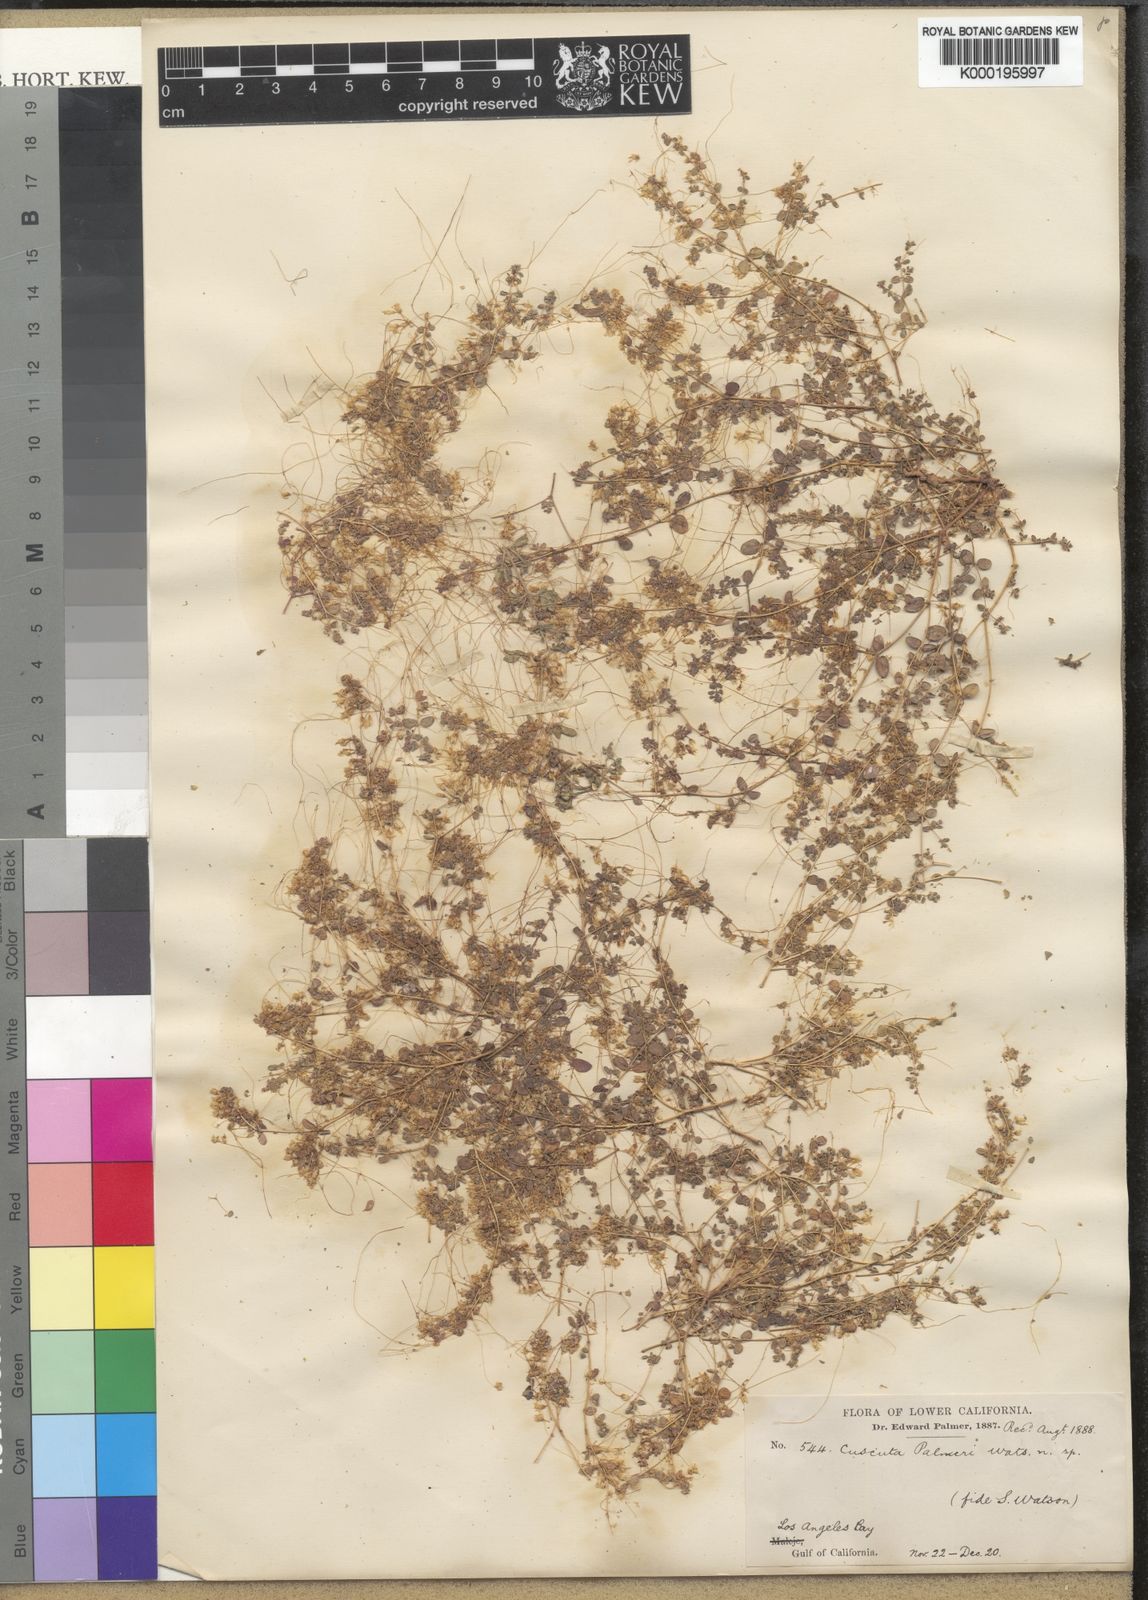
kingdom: Plantae
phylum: Tracheophyta
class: Magnoliopsida
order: Solanales
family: Convolvulaceae
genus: Cuscuta
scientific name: Cuscuta leptantha
